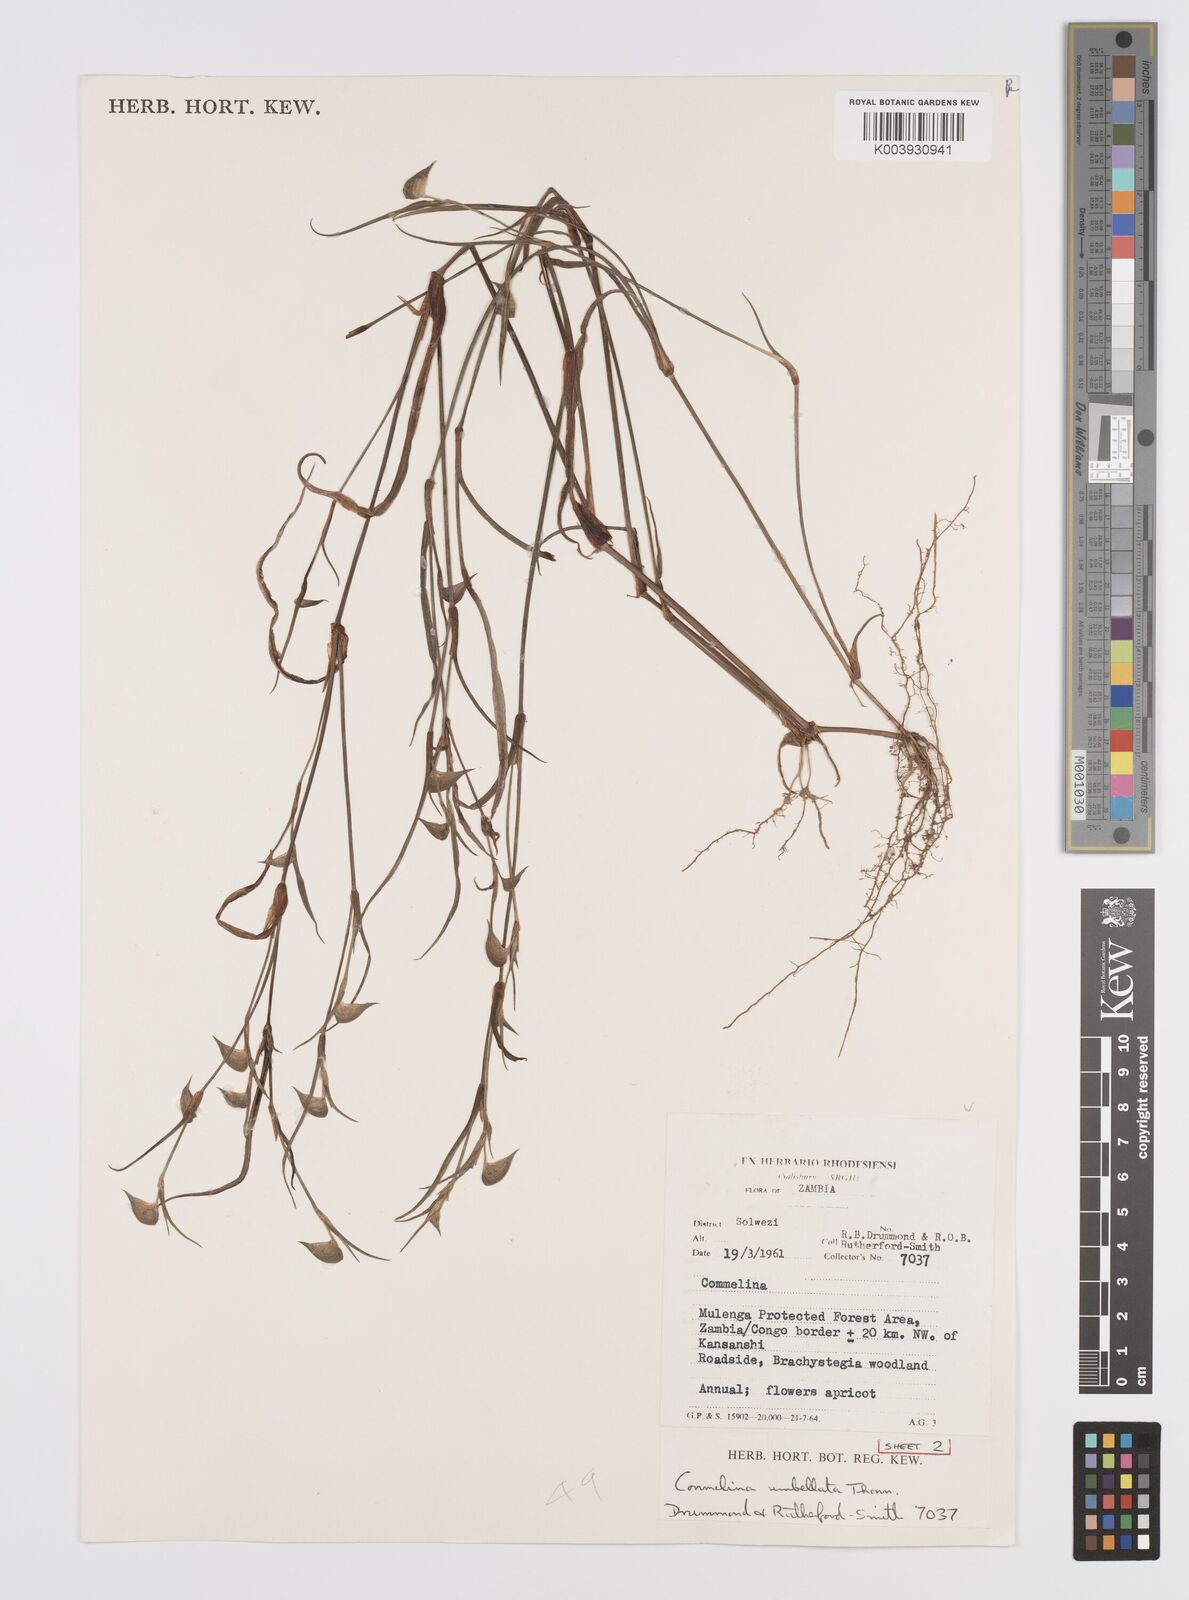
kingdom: Plantae
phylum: Tracheophyta
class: Liliopsida
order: Commelinales
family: Commelinaceae
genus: Commelina
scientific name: Commelina nigritana
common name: African dayflower
